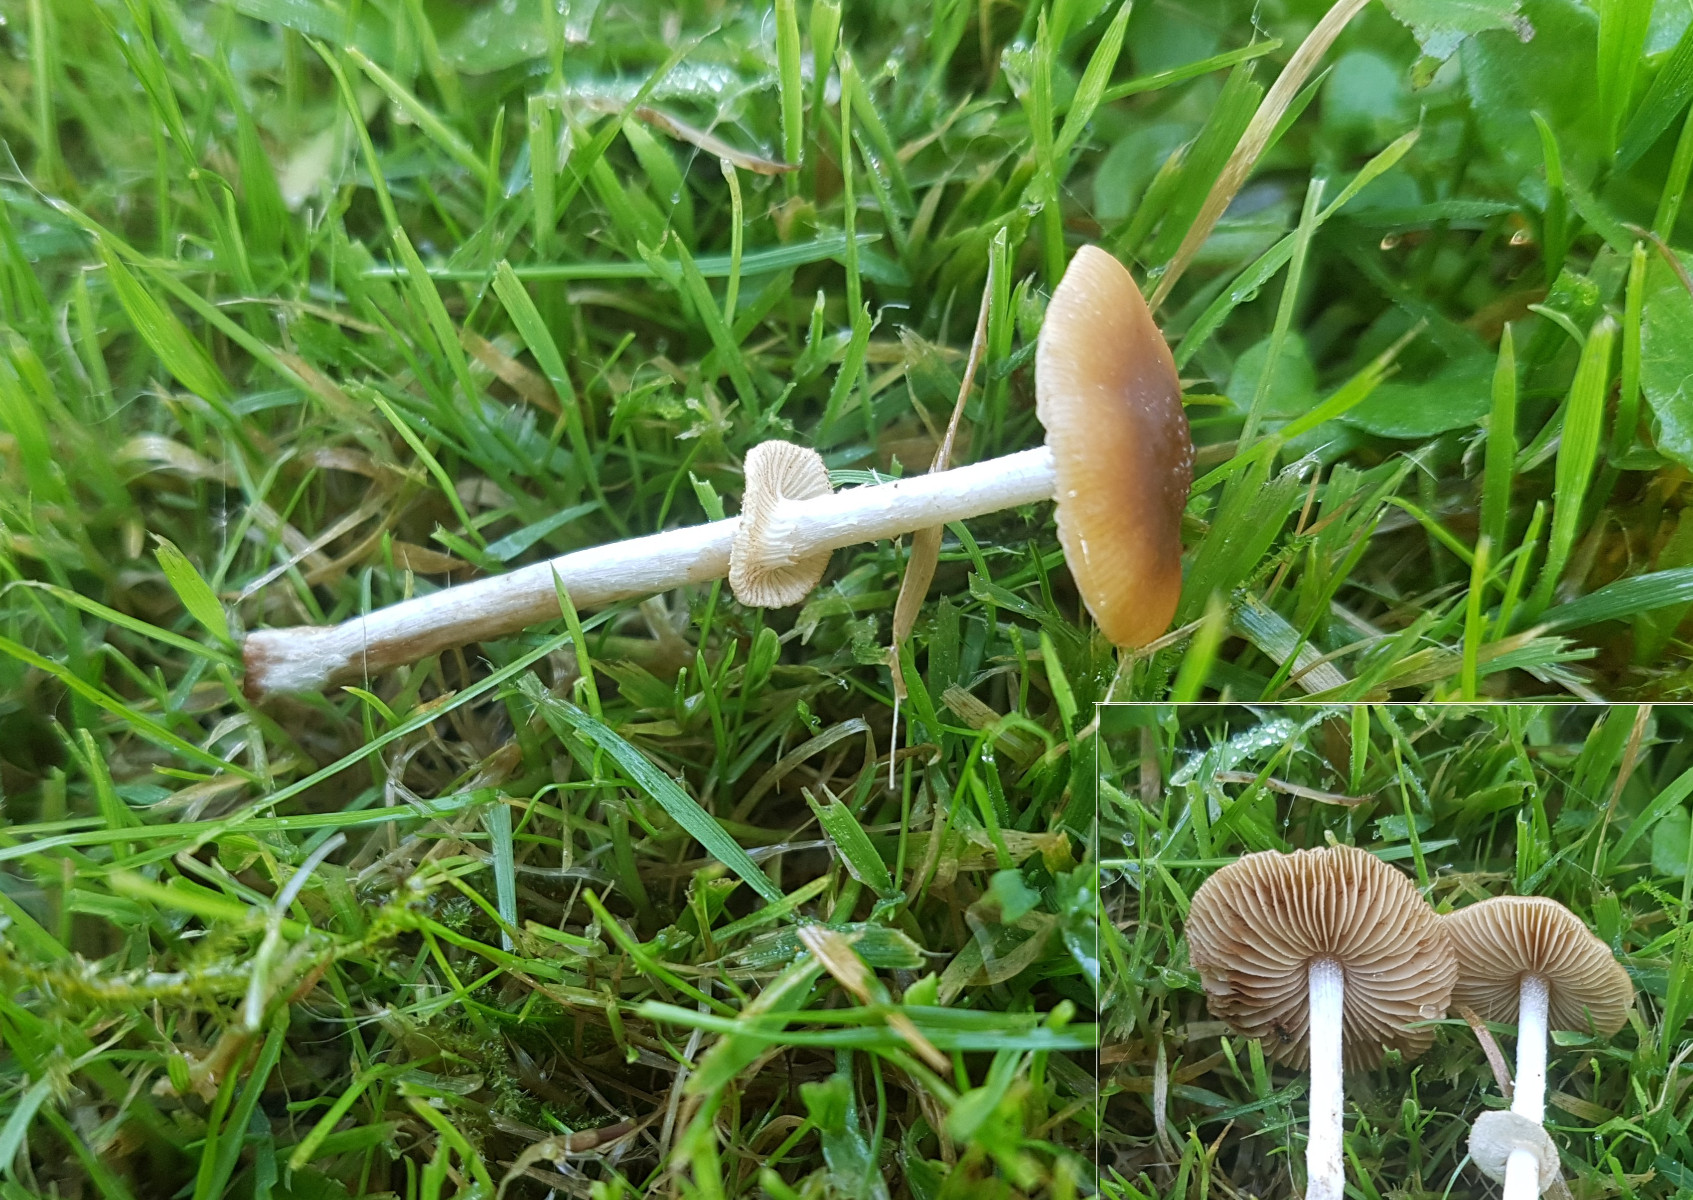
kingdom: Fungi
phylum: Basidiomycota
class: Agaricomycetes
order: Agaricales
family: Bolbitiaceae
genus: Conocybe
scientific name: Conocybe arrhenii
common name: ring-dansehat
